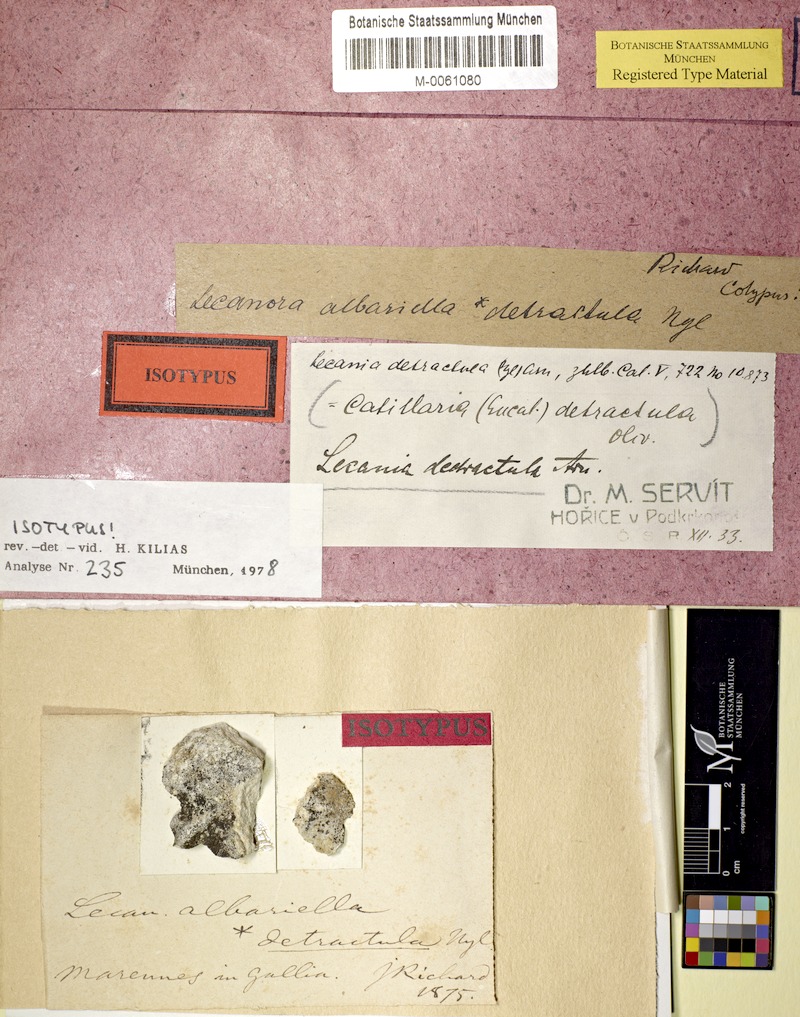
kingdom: Fungi
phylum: Ascomycota
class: Lecanoromycetes
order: Lecanorales
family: Catillariaceae
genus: Catillaria
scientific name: Catillaria detractula
